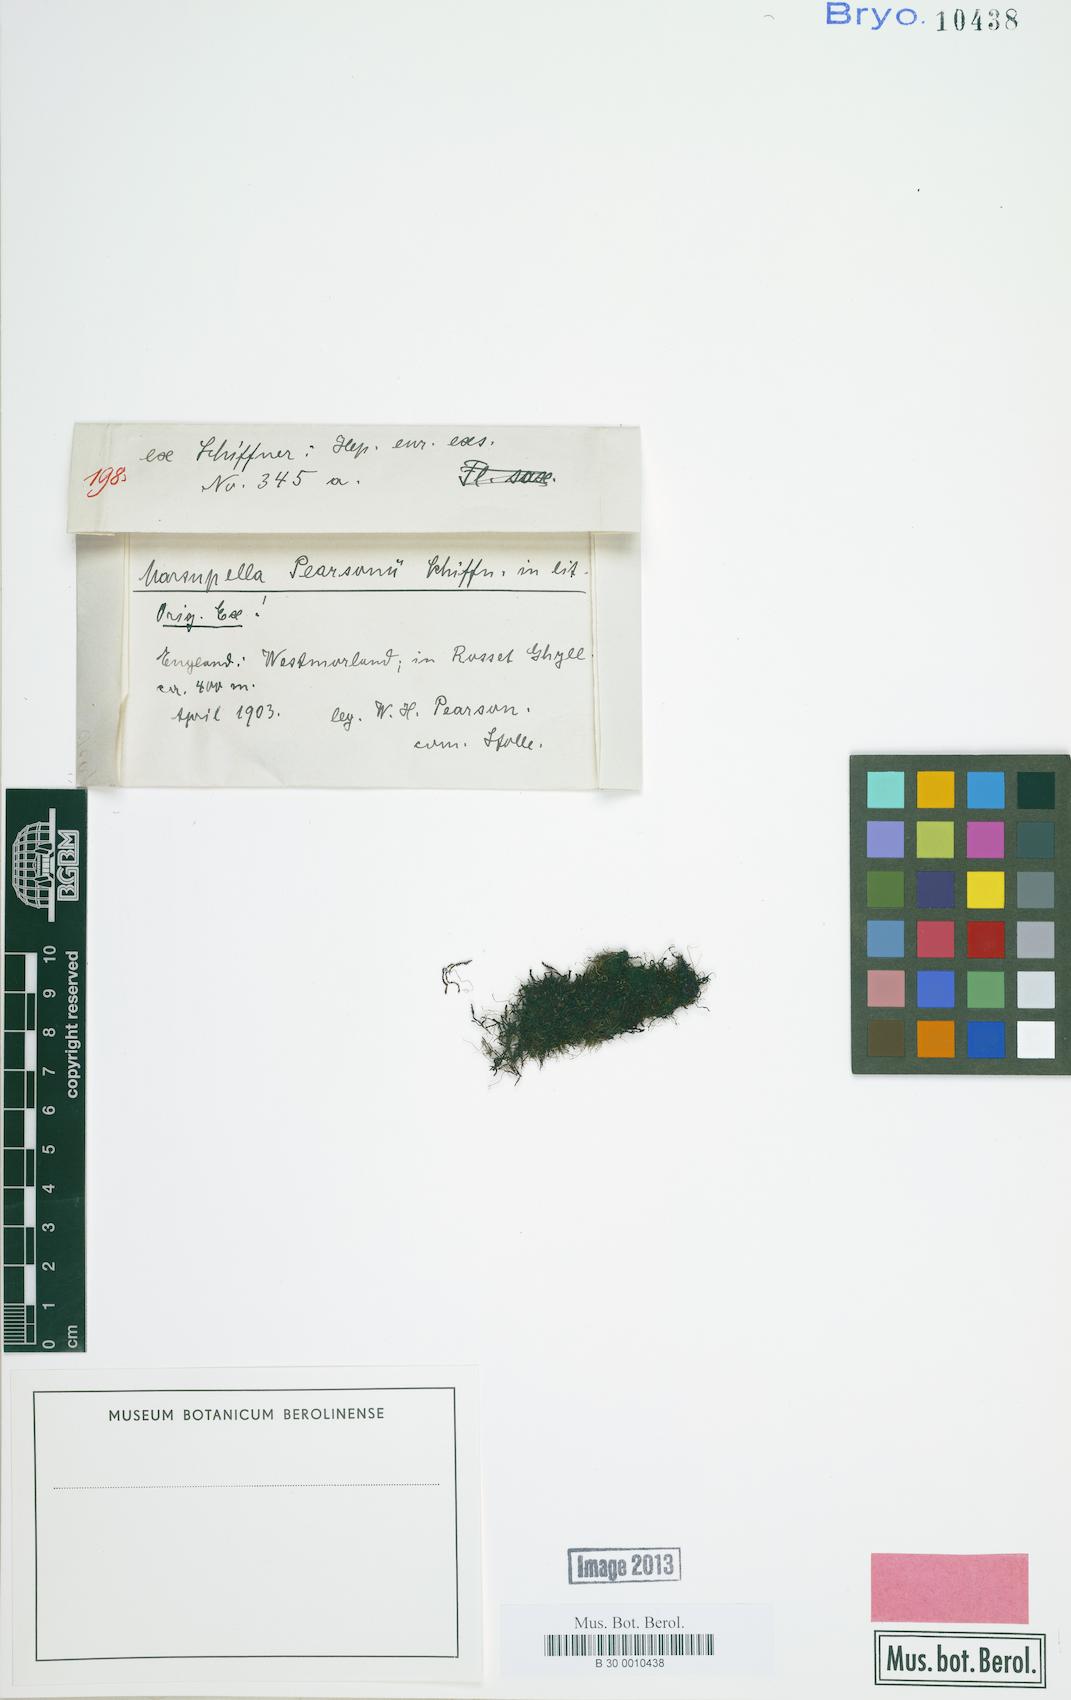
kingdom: Plantae
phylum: Marchantiophyta
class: Jungermanniopsida
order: Jungermanniales
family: Gymnomitriaceae
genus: Marsupella
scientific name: Marsupella emarginata
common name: Notched rustwort
